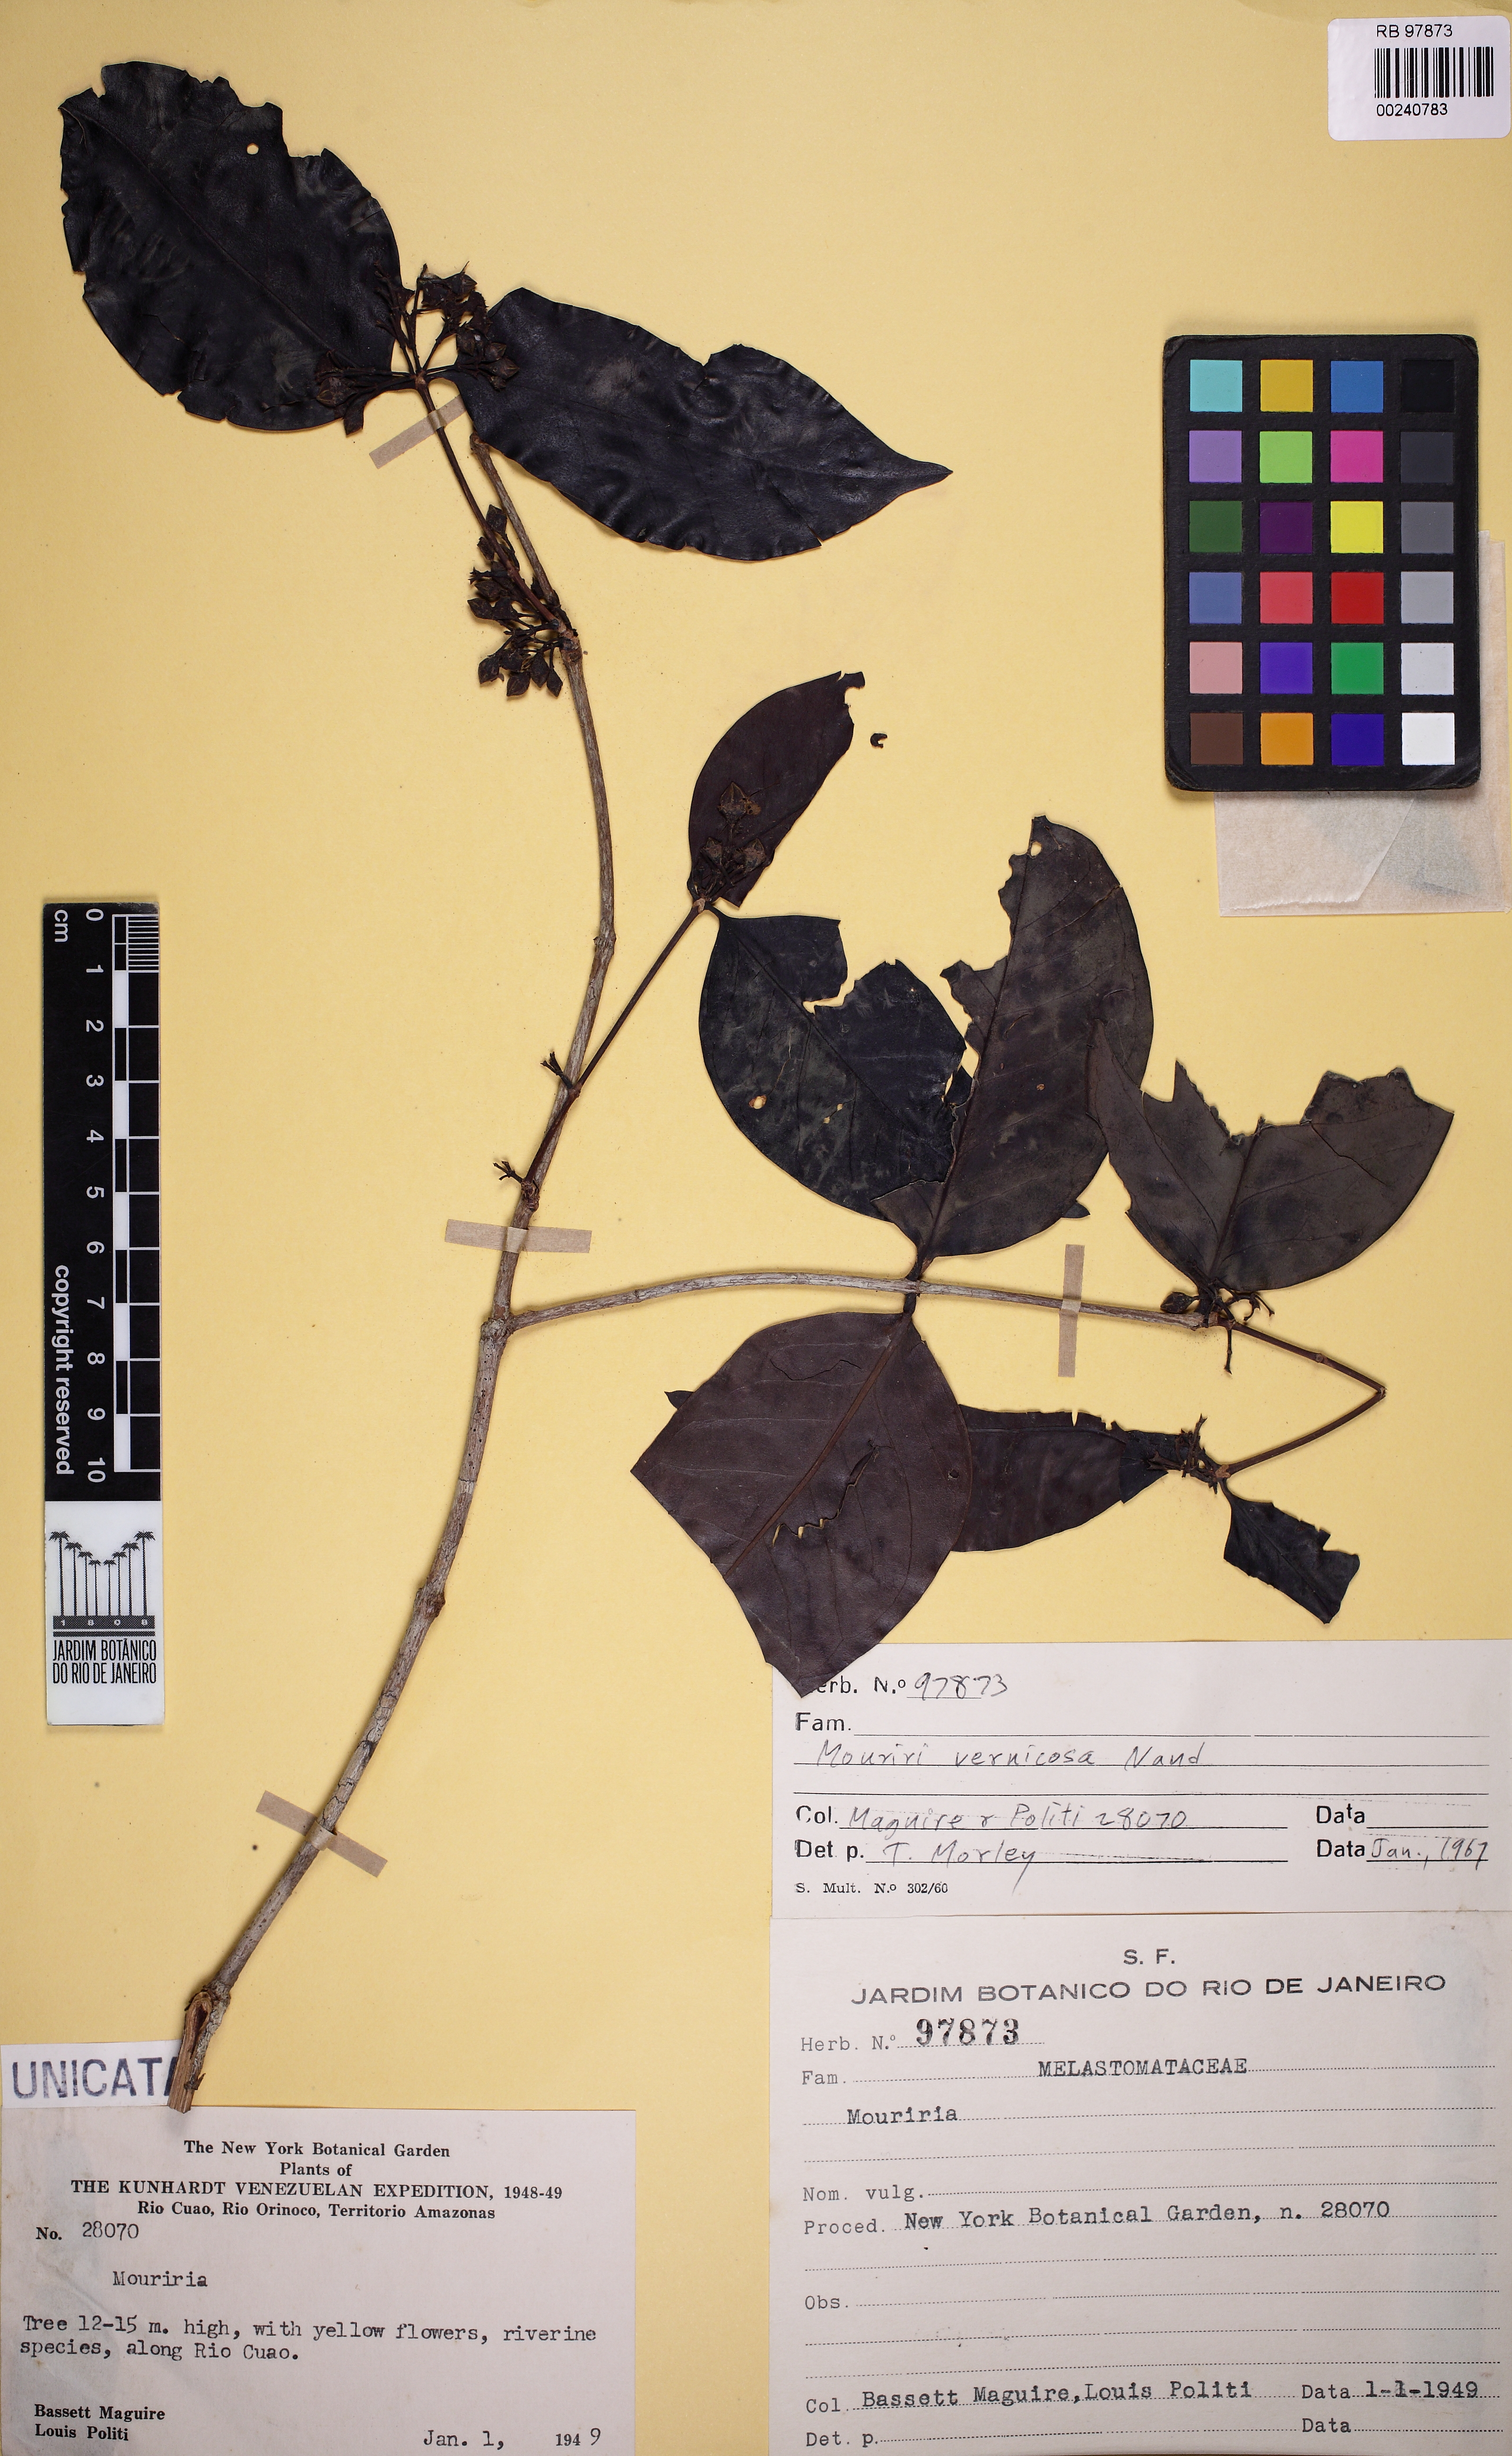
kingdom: Plantae
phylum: Tracheophyta
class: Magnoliopsida
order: Myrtales
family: Melastomataceae
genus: Mouriri
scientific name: Mouriri vernicosa
